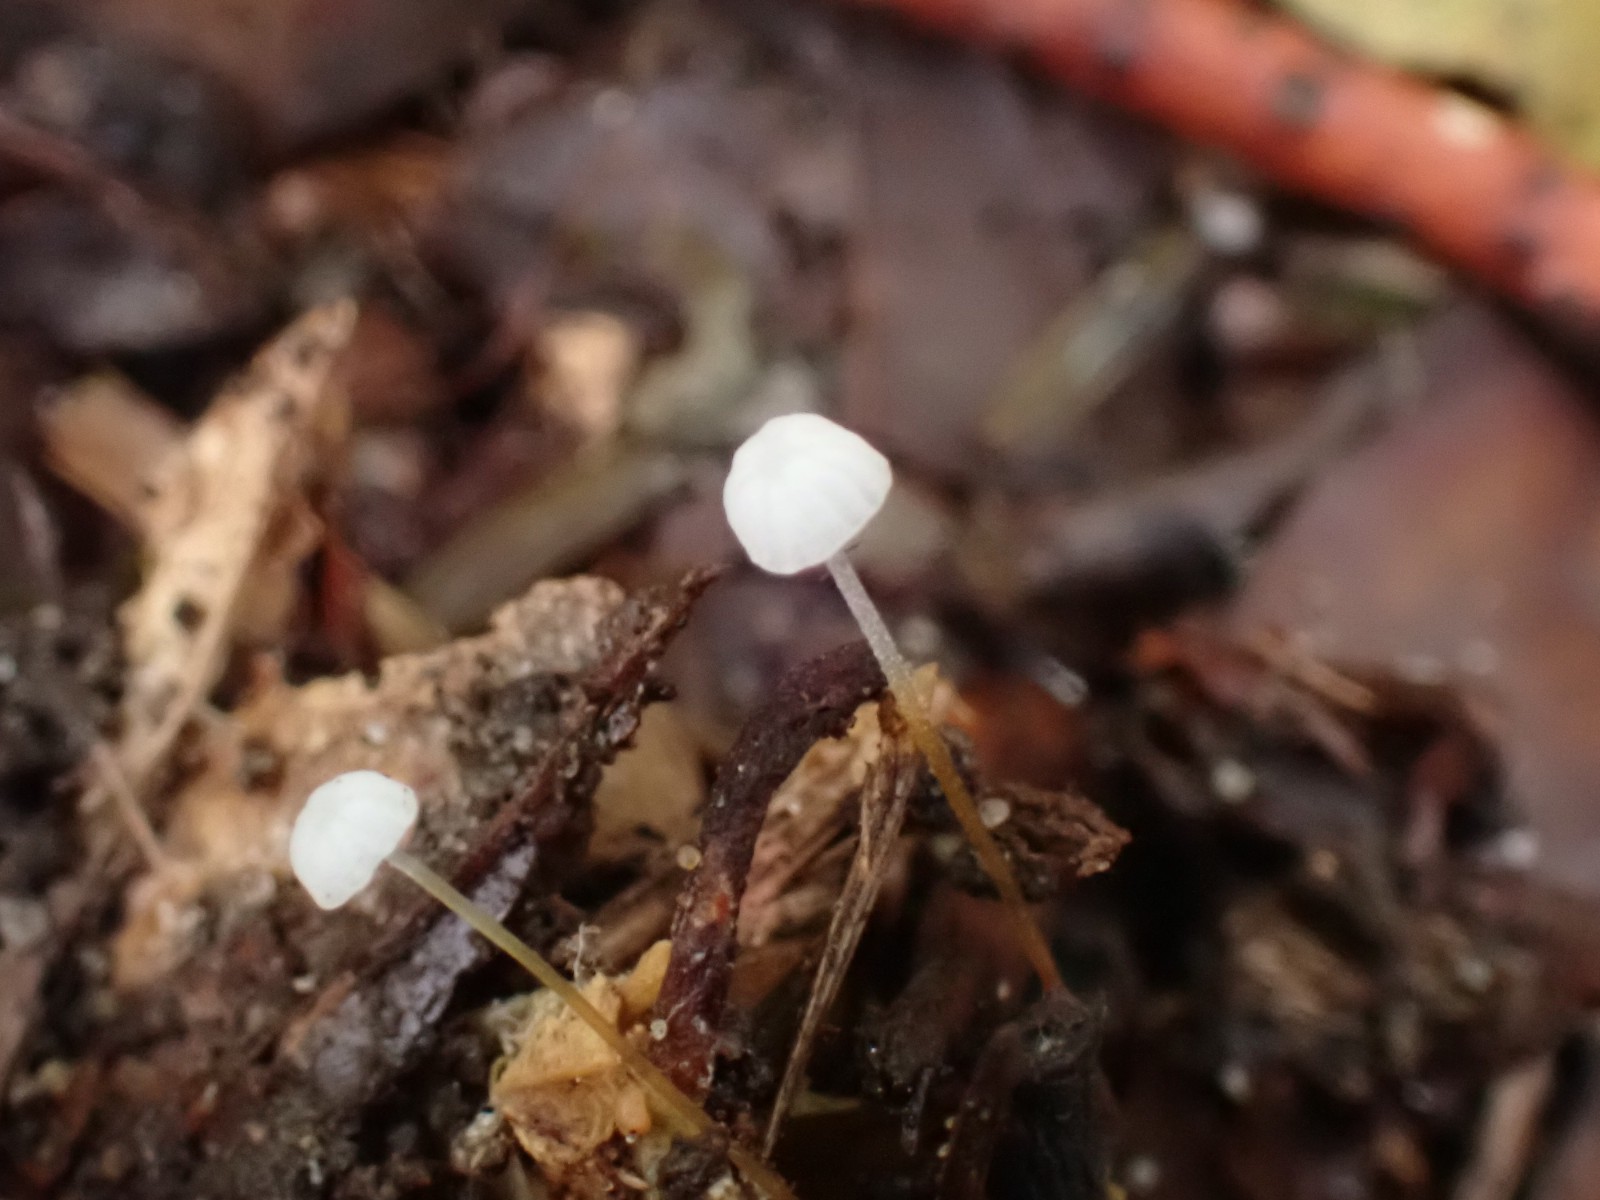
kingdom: Fungi
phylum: Basidiomycota
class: Agaricomycetes
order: Agaricales
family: Physalacriaceae
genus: Rhizomarasmius
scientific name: Rhizomarasmius setosus
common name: bøgeblads-bruskhat
